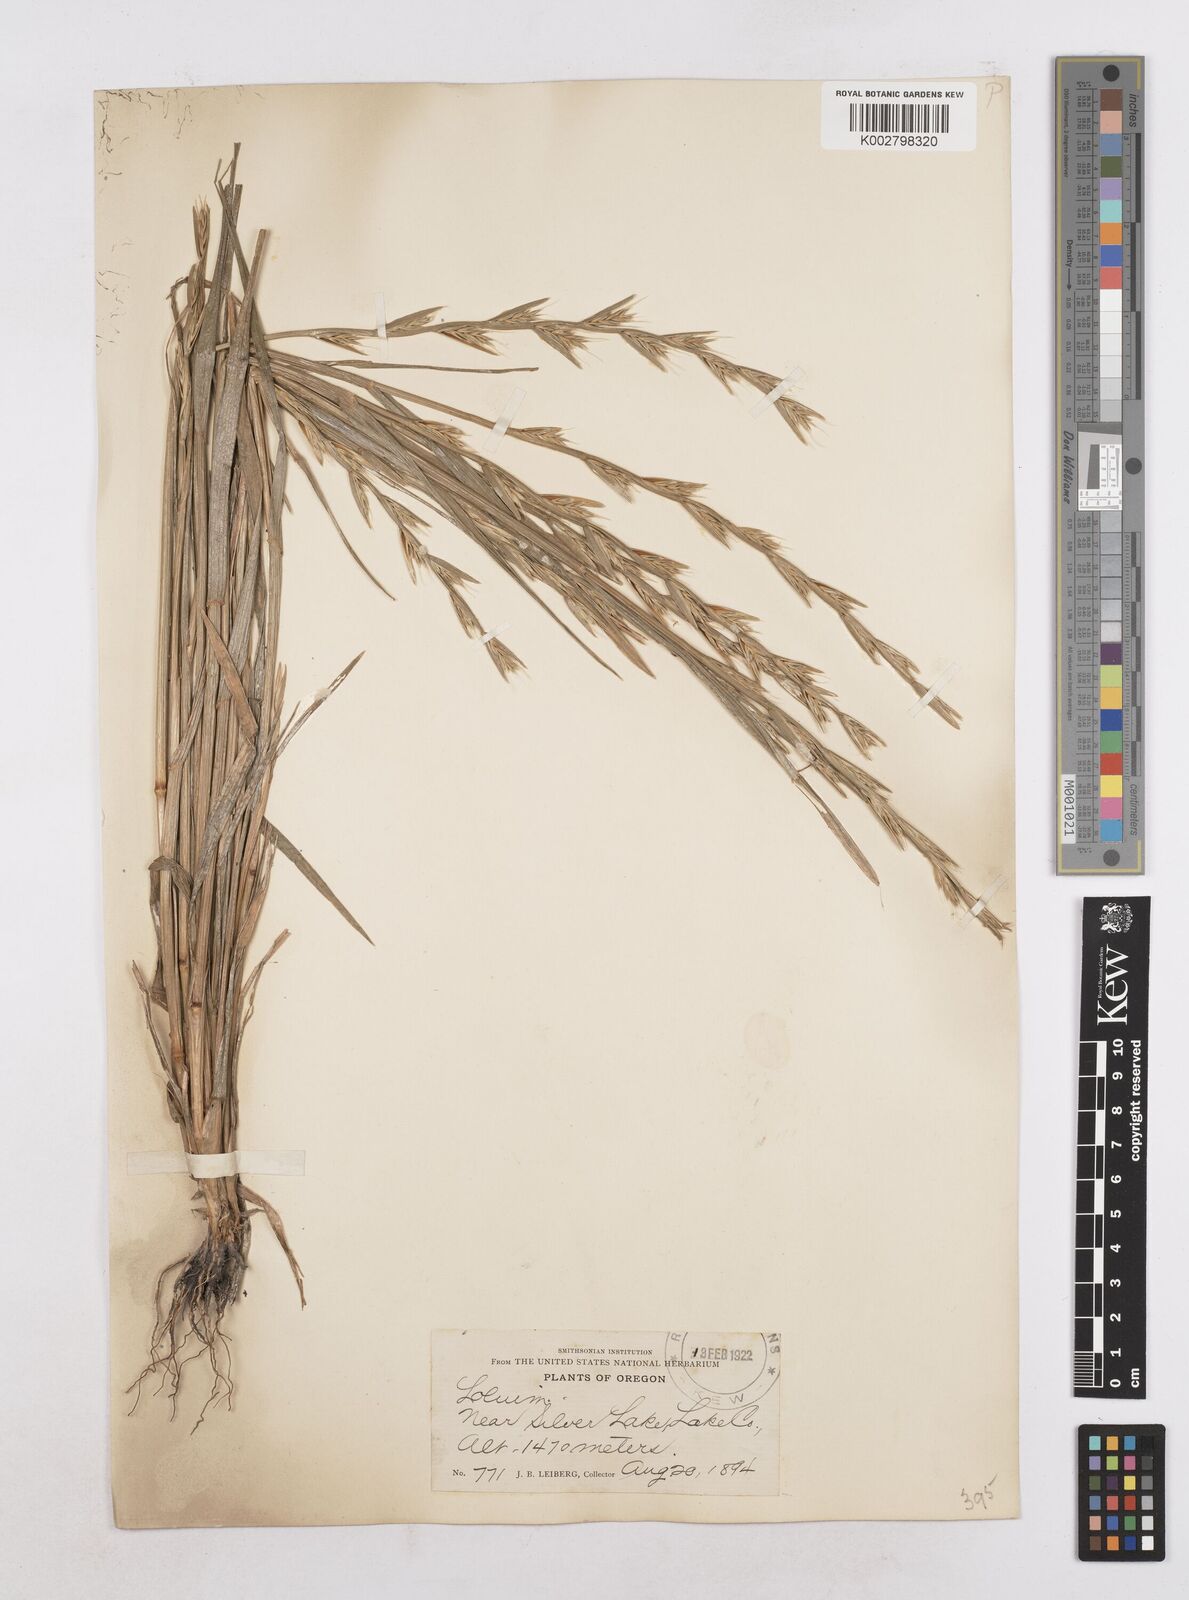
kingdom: Plantae
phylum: Tracheophyta
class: Liliopsida
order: Poales
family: Poaceae
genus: Lolium
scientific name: Lolium temulentum
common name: Darnel
